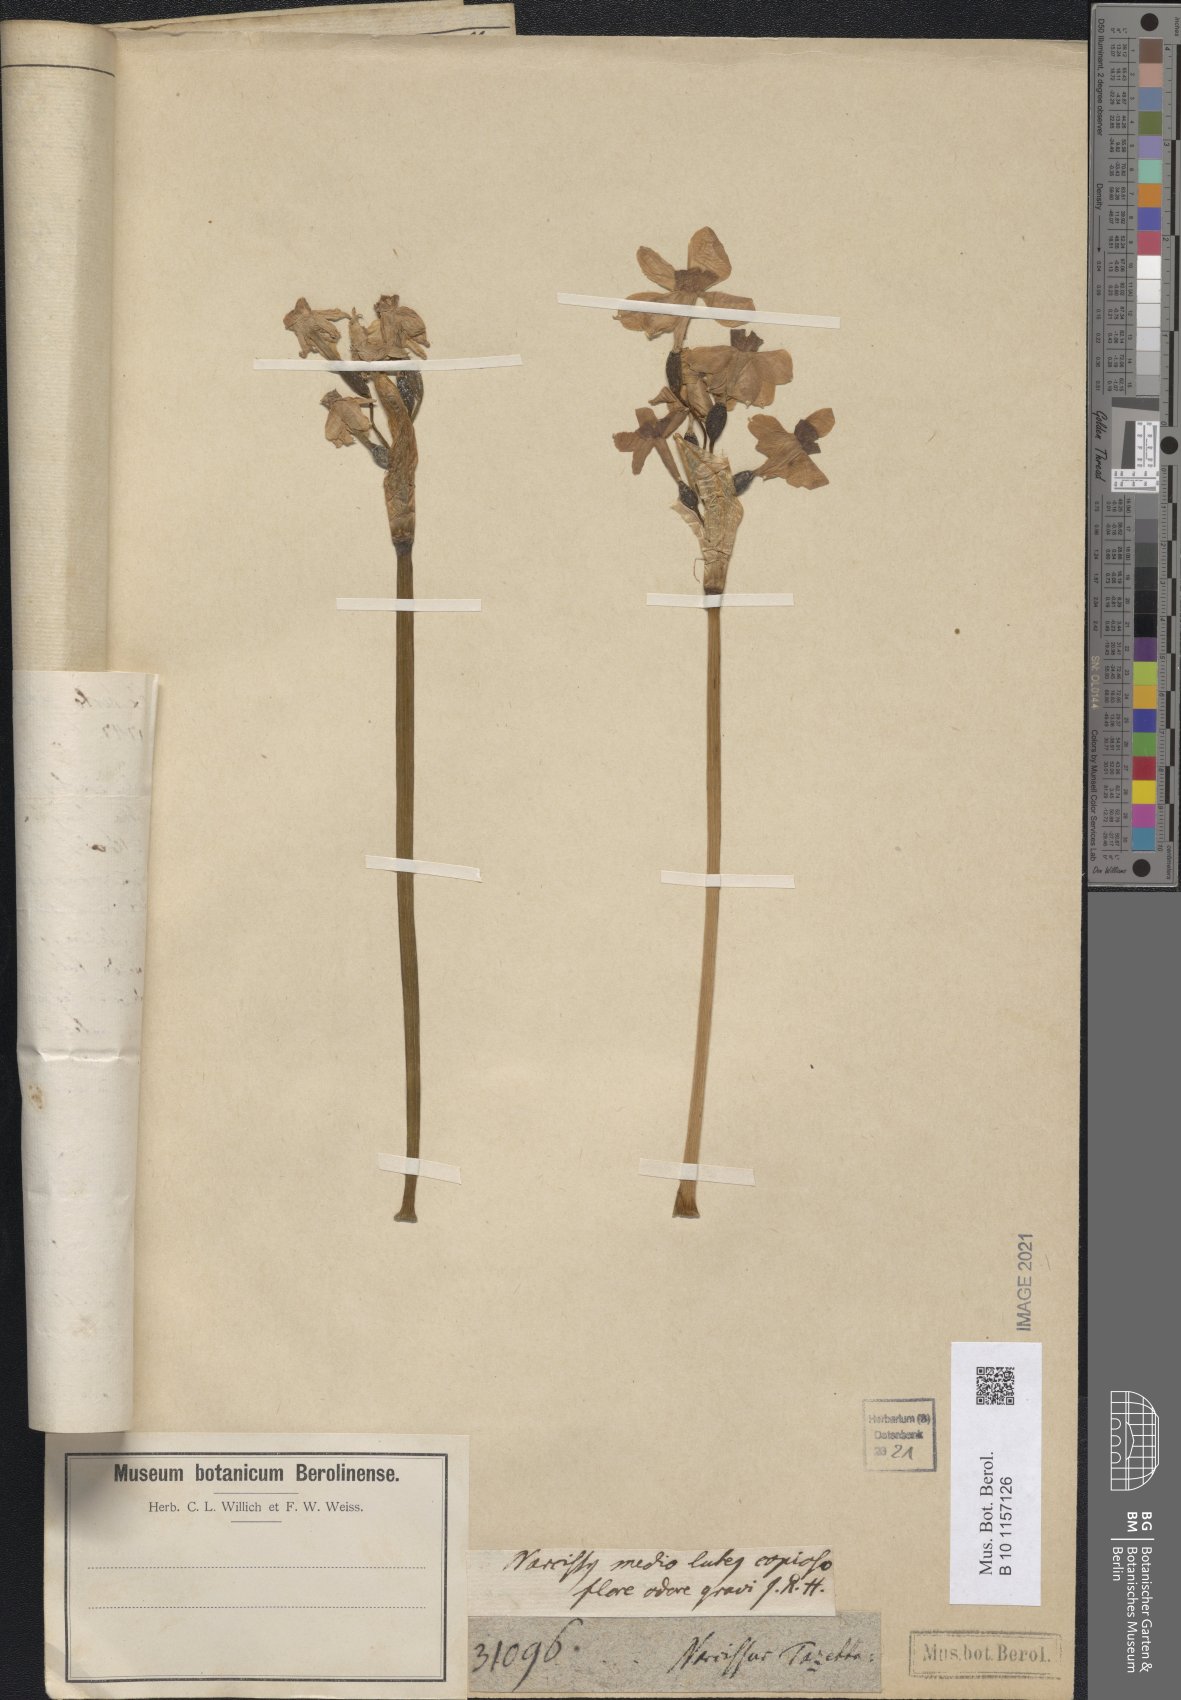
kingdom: Plantae
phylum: Tracheophyta
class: Liliopsida
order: Asparagales
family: Amaryllidaceae
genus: Narcissus
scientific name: Narcissus tazetta
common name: Bunch-flowered daffodil
